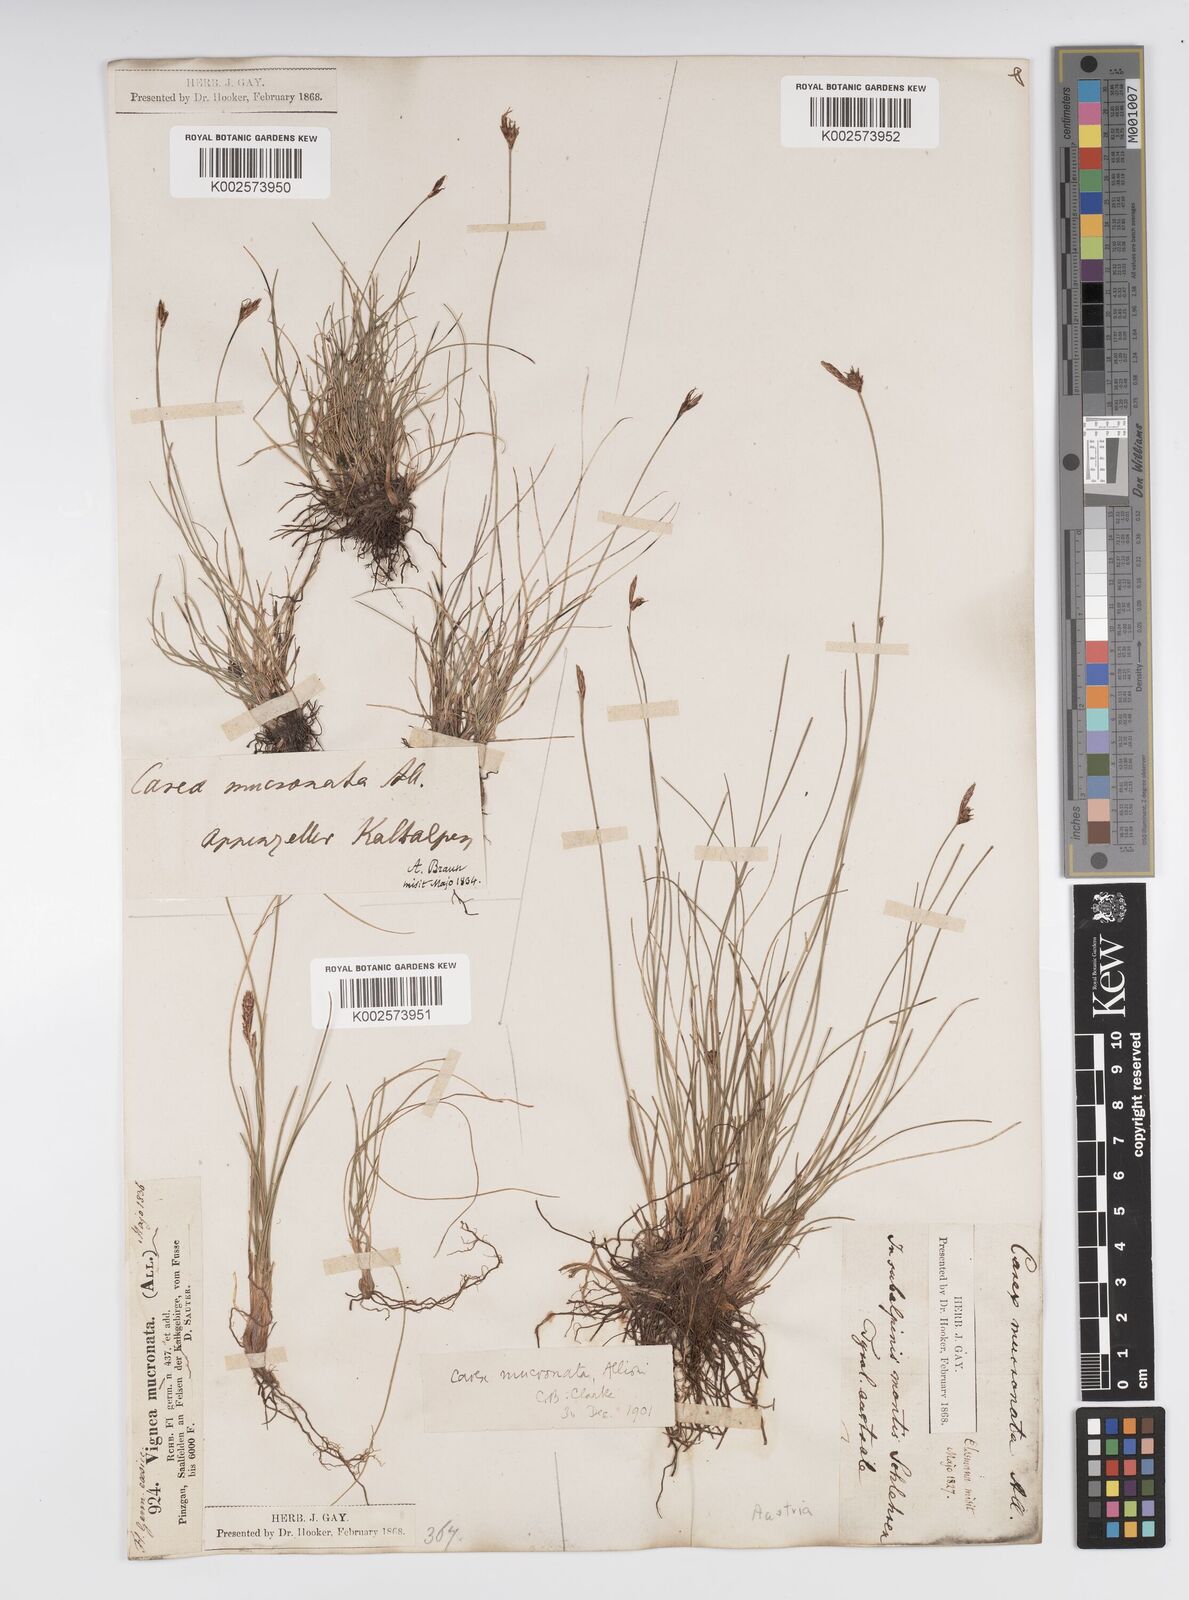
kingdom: Plantae
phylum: Tracheophyta
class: Liliopsida
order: Poales
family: Cyperaceae
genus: Carex
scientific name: Carex mucronata
